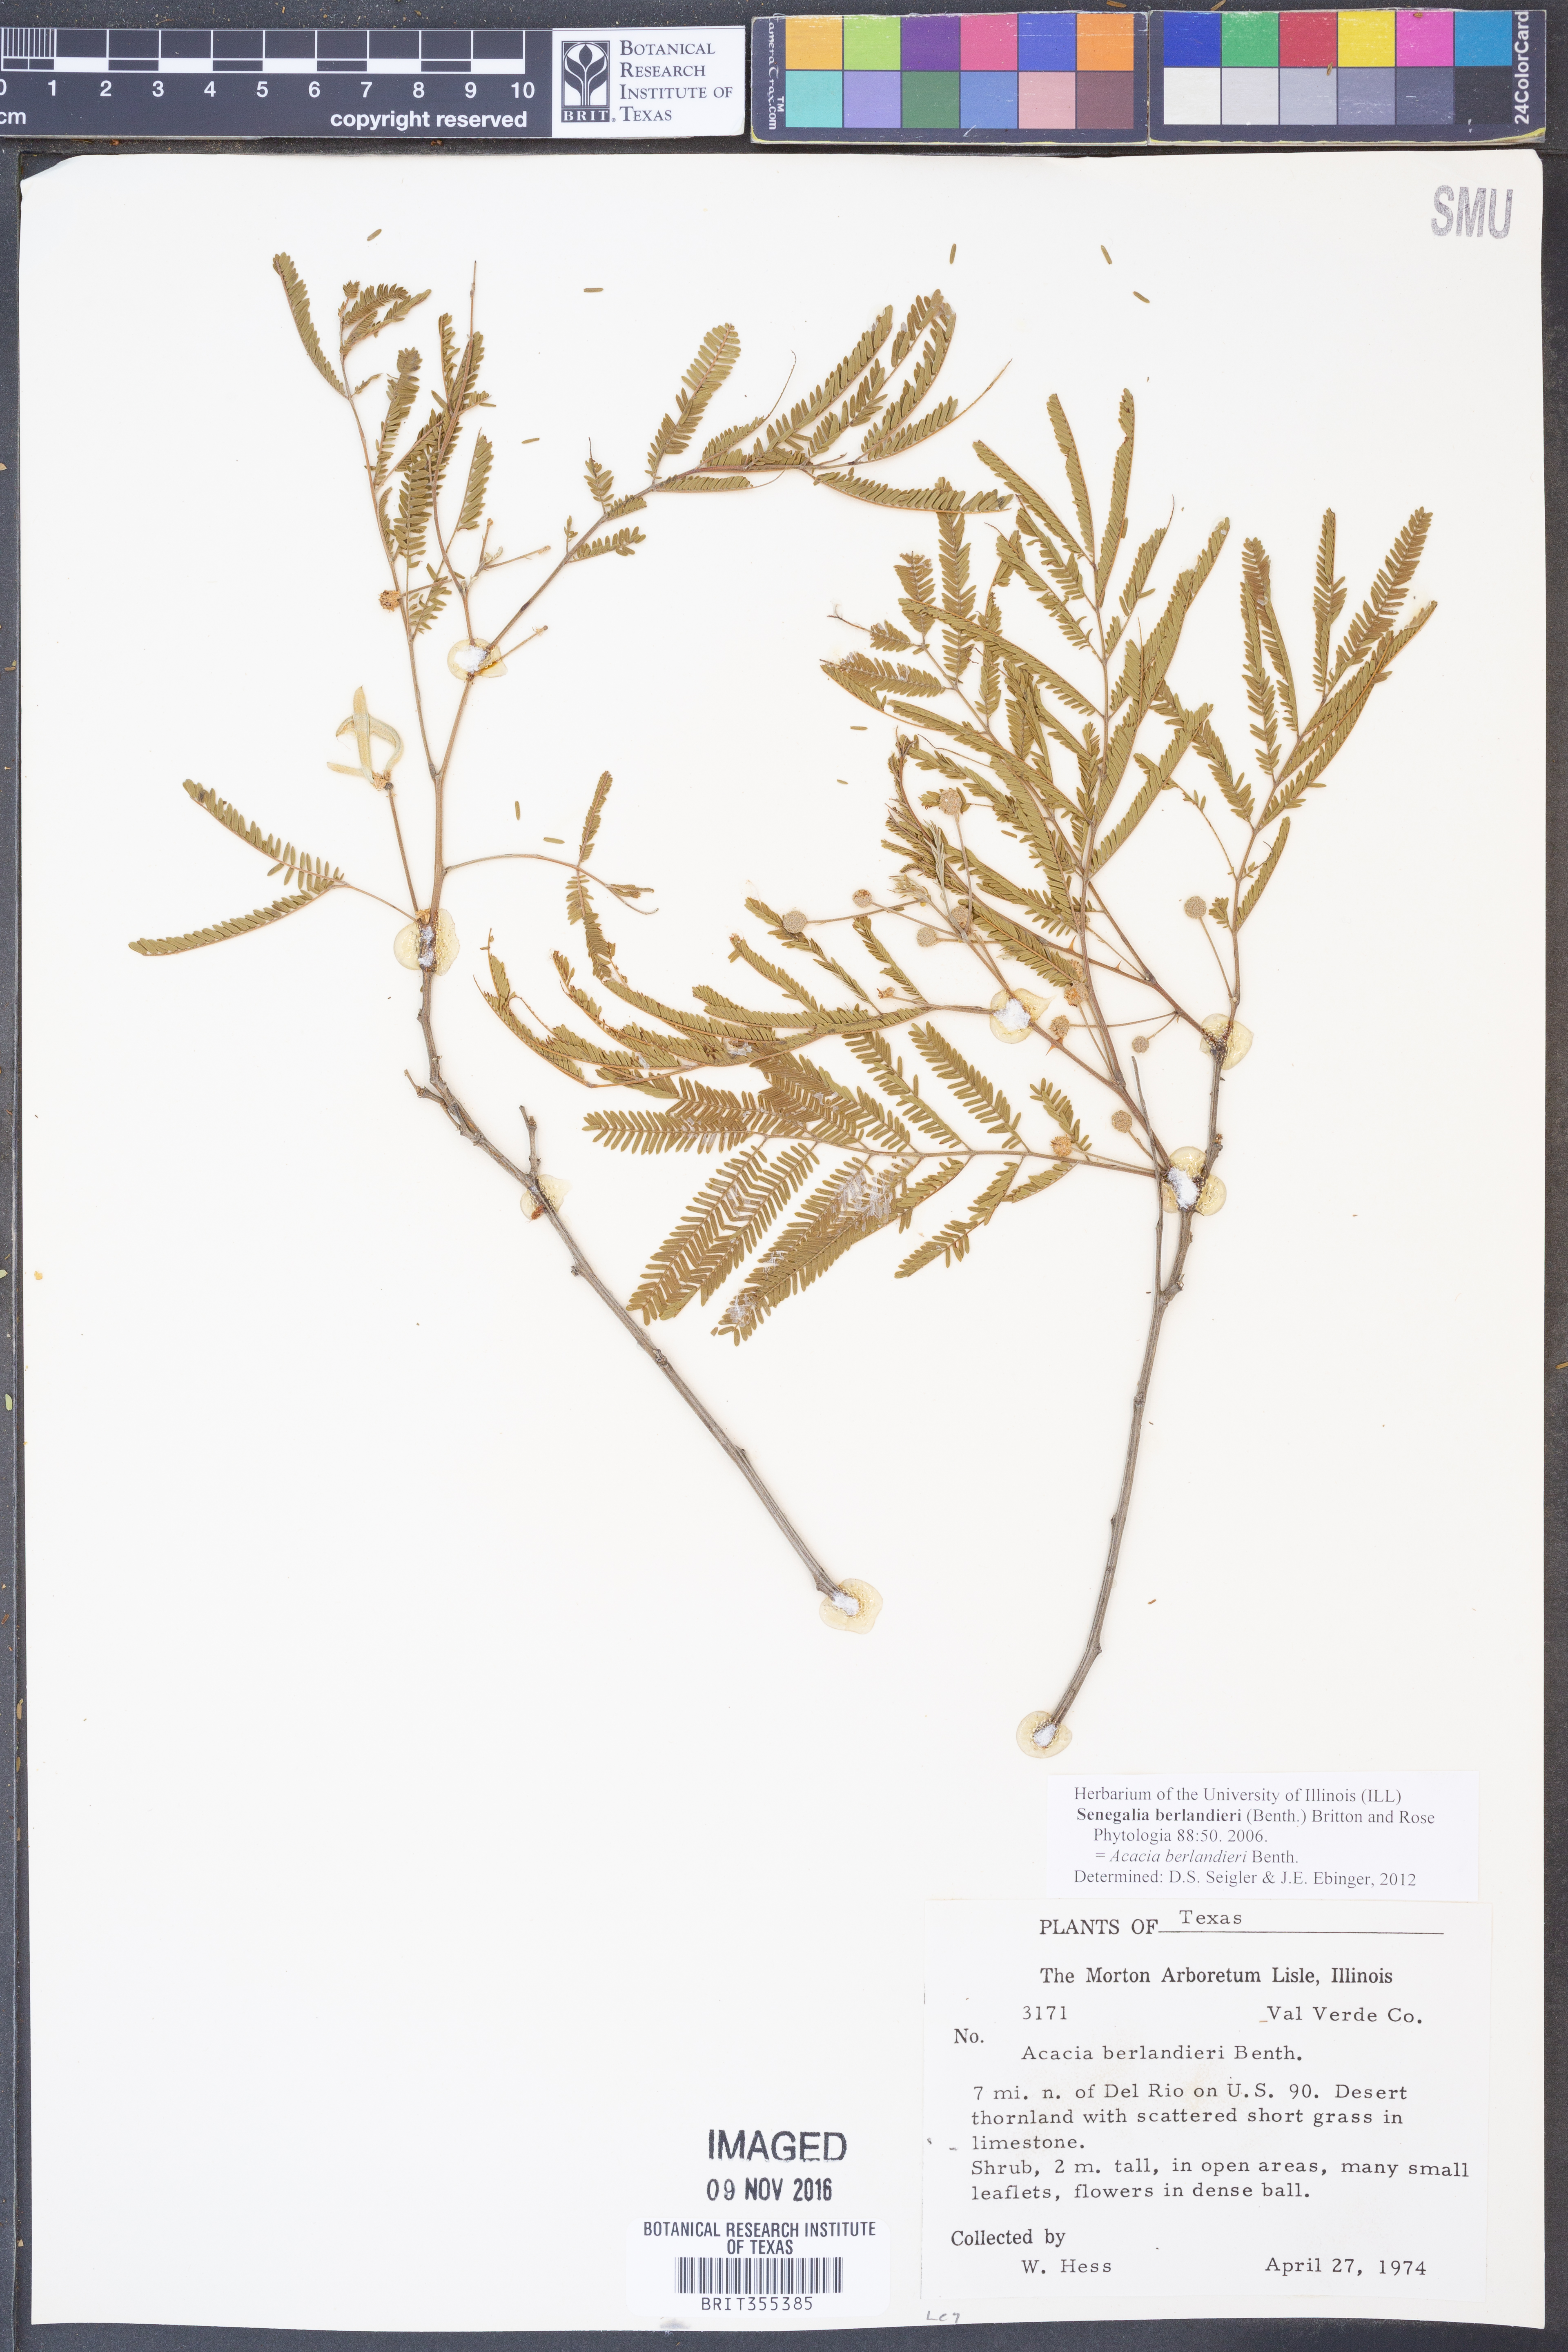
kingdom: Plantae
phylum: Tracheophyta
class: Magnoliopsida
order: Fabales
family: Fabaceae
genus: Senegalia
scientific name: Senegalia berlandieri
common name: Berlandier acacia
